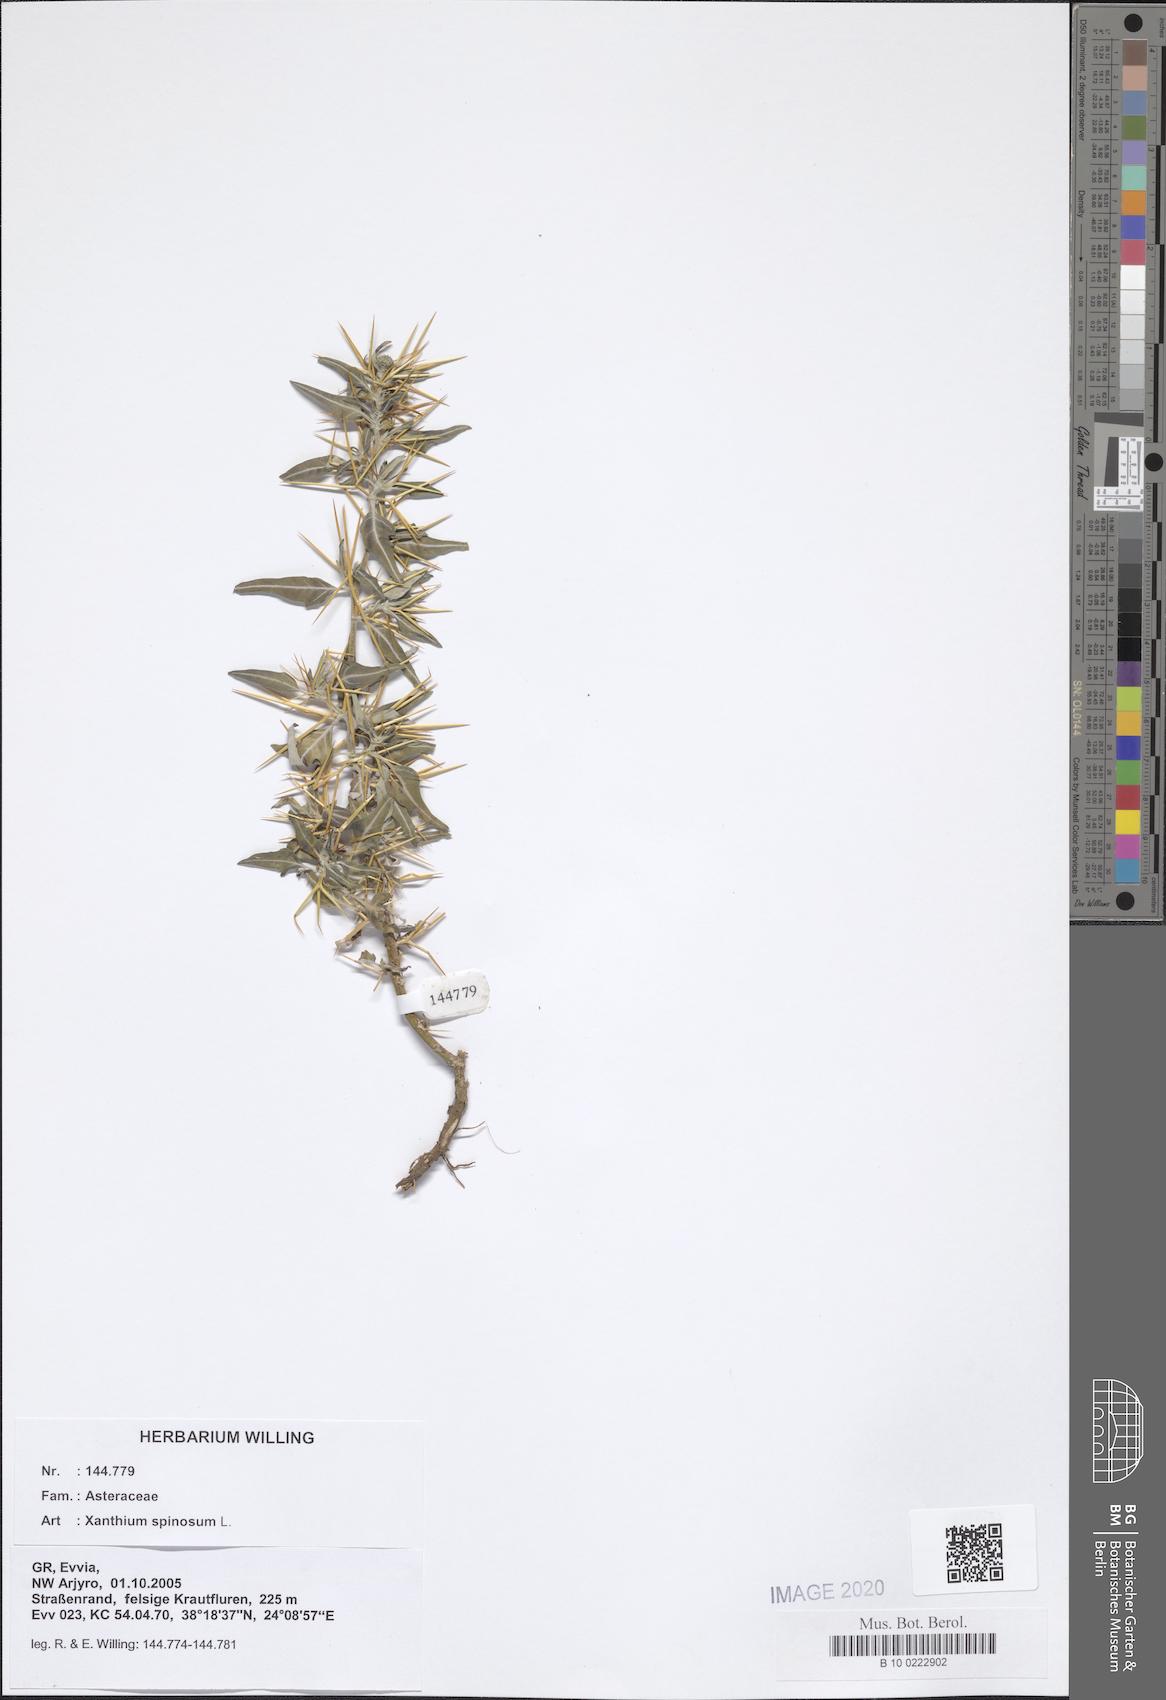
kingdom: Plantae
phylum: Tracheophyta
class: Magnoliopsida
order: Asterales
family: Asteraceae
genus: Xanthium
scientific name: Xanthium spinosum
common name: Spiny cocklebur
